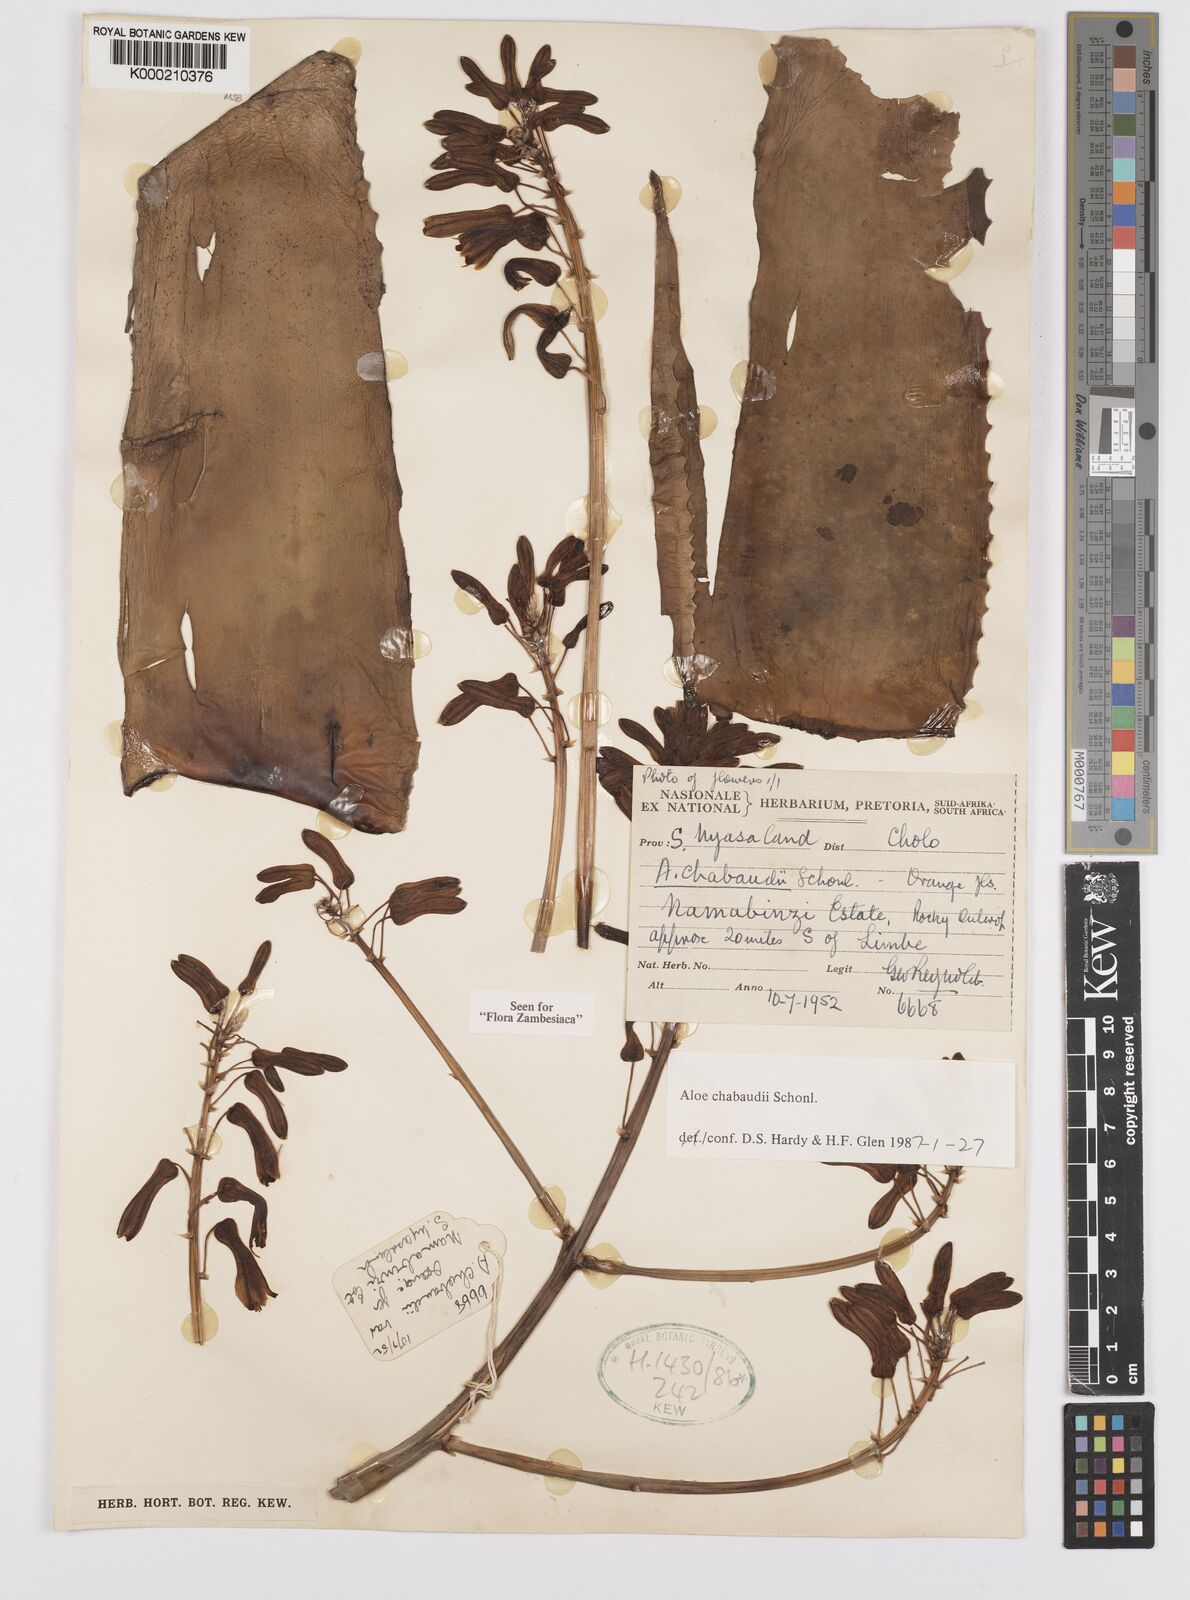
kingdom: Plantae
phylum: Tracheophyta
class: Liliopsida
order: Asparagales
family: Asphodelaceae
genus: Aloe
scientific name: Aloe chabaudii
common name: Chabaud's aloe
